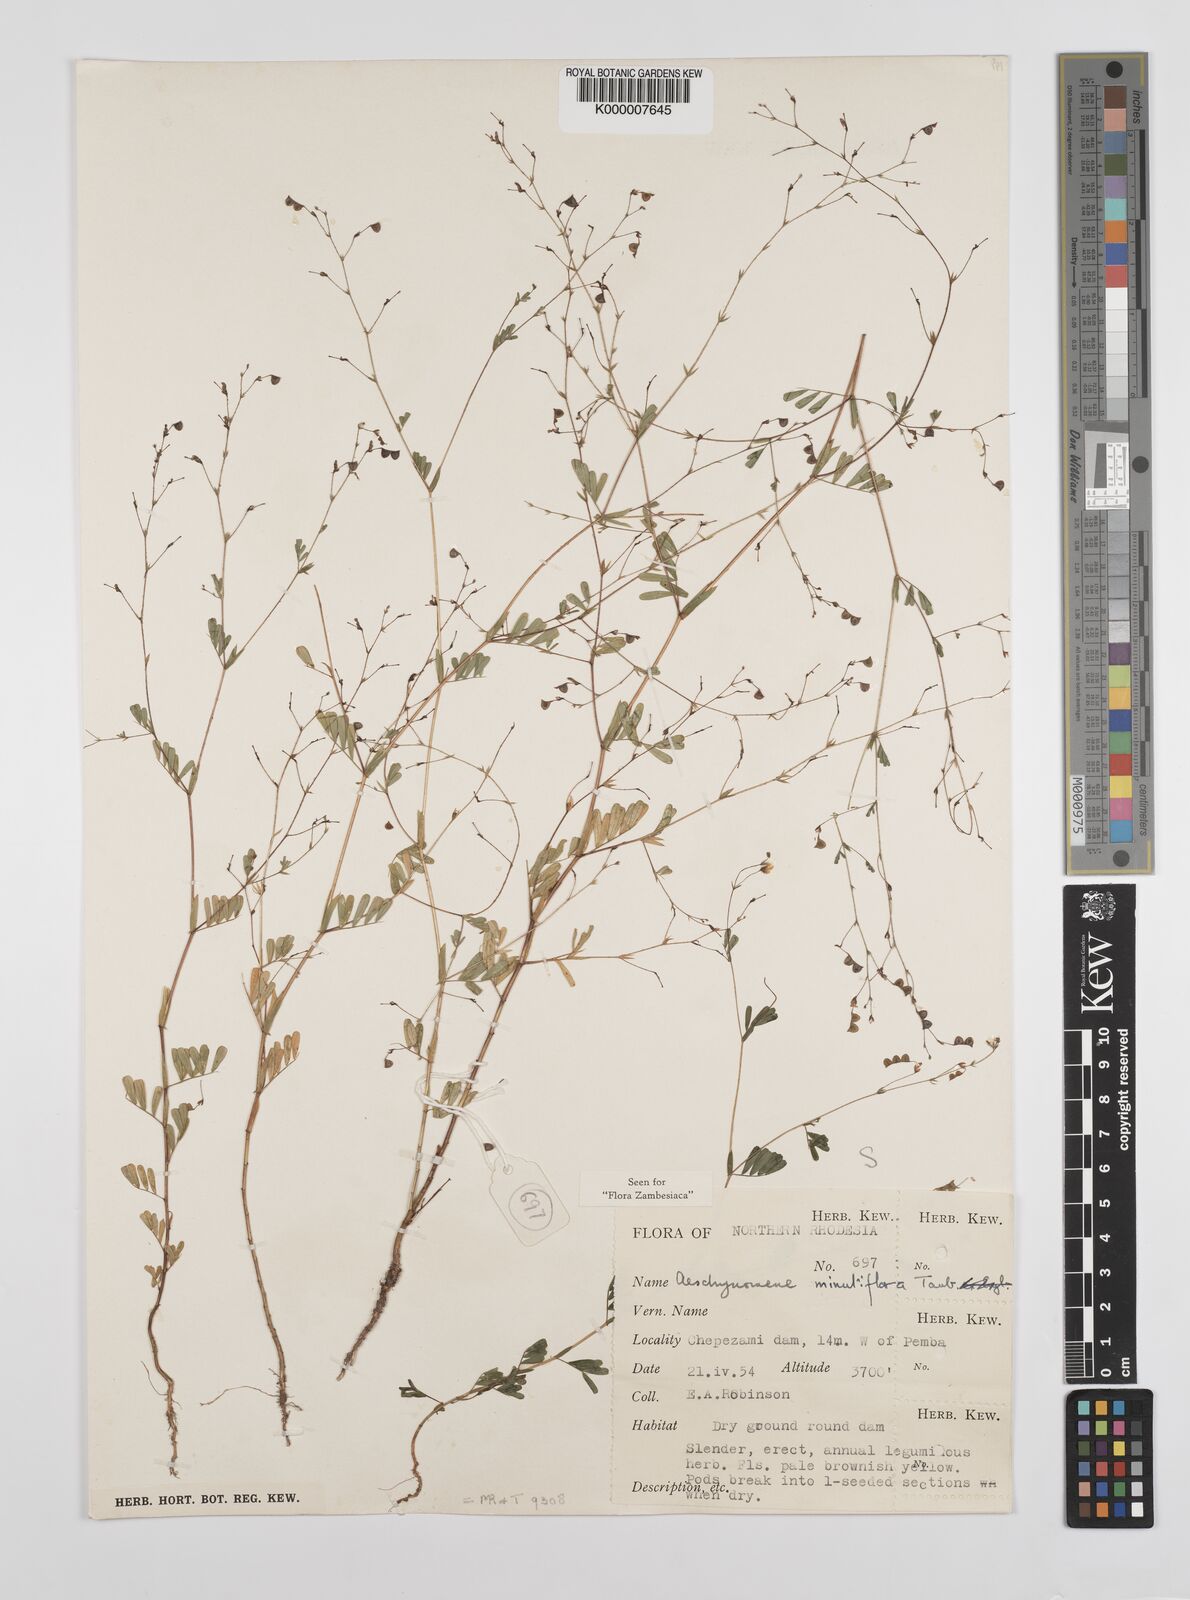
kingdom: Plantae
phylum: Tracheophyta
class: Magnoliopsida
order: Fabales
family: Fabaceae
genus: Aeschynomene
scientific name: Aeschynomene minutiflora
